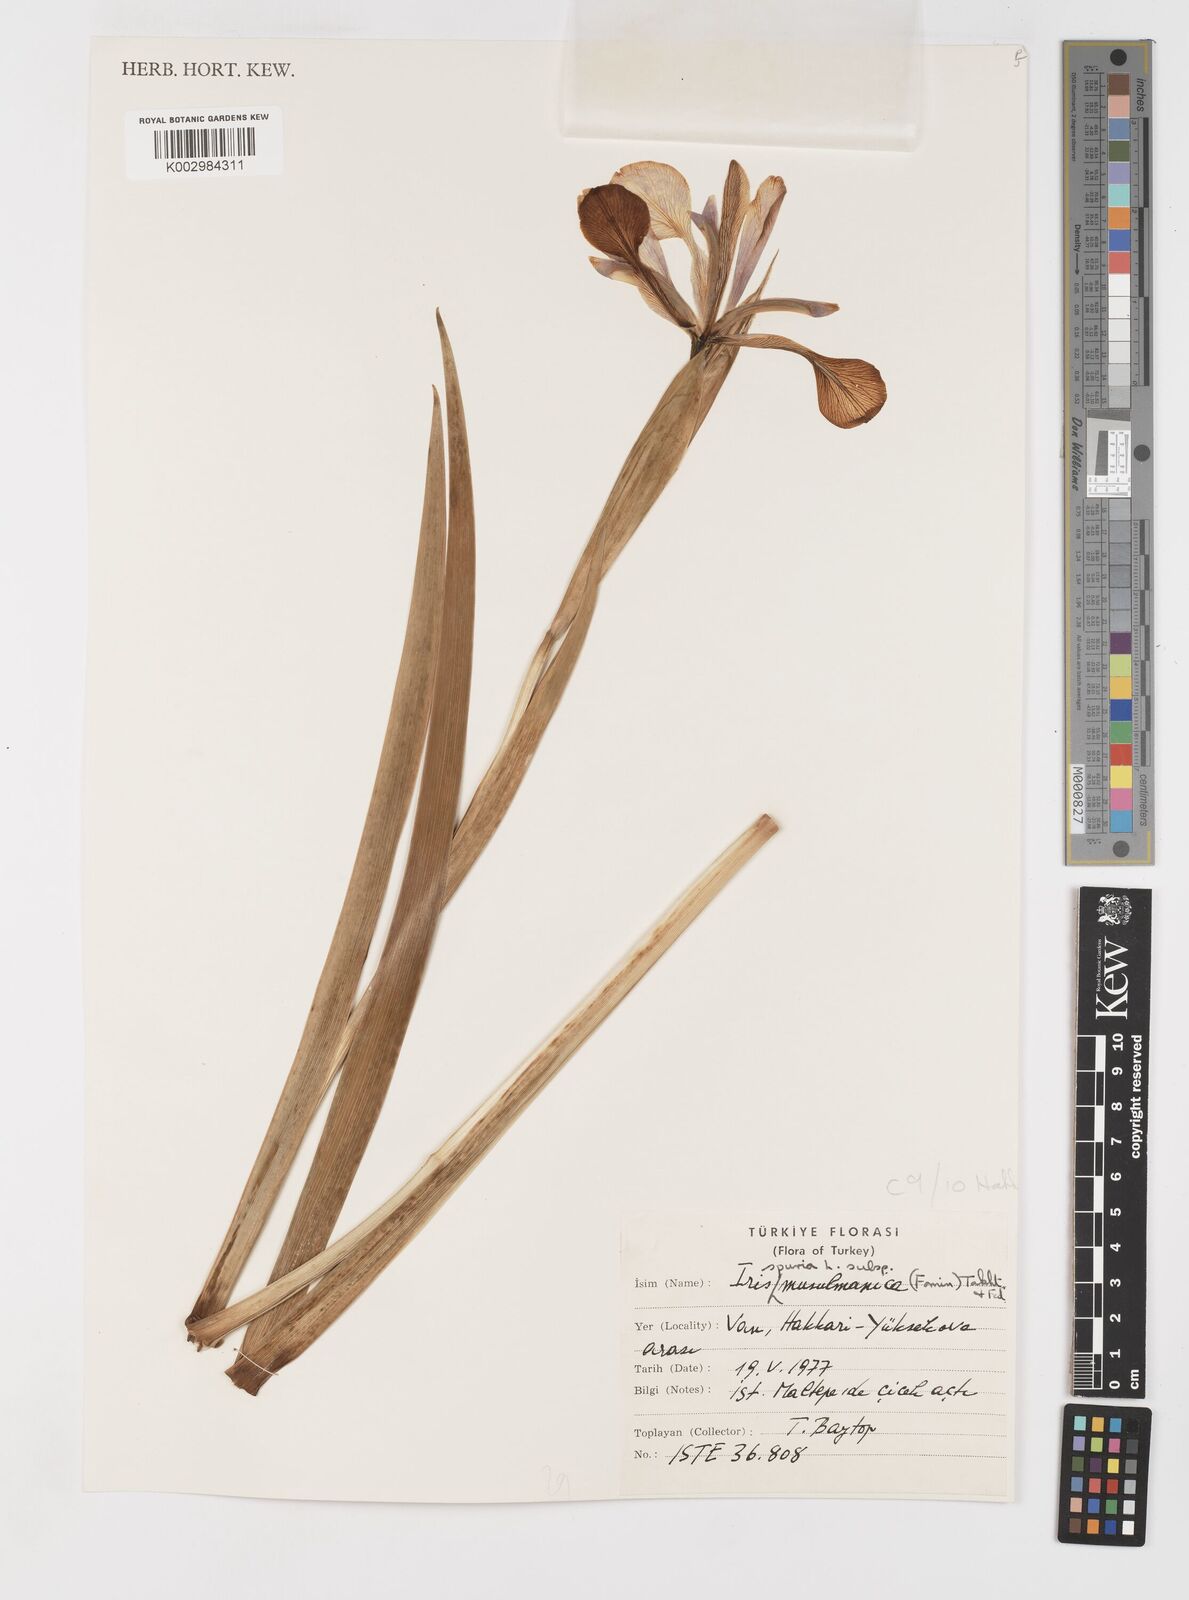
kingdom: Plantae
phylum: Tracheophyta
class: Liliopsida
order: Asparagales
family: Iridaceae
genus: Iris
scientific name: Iris spuria
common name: Blue iris
